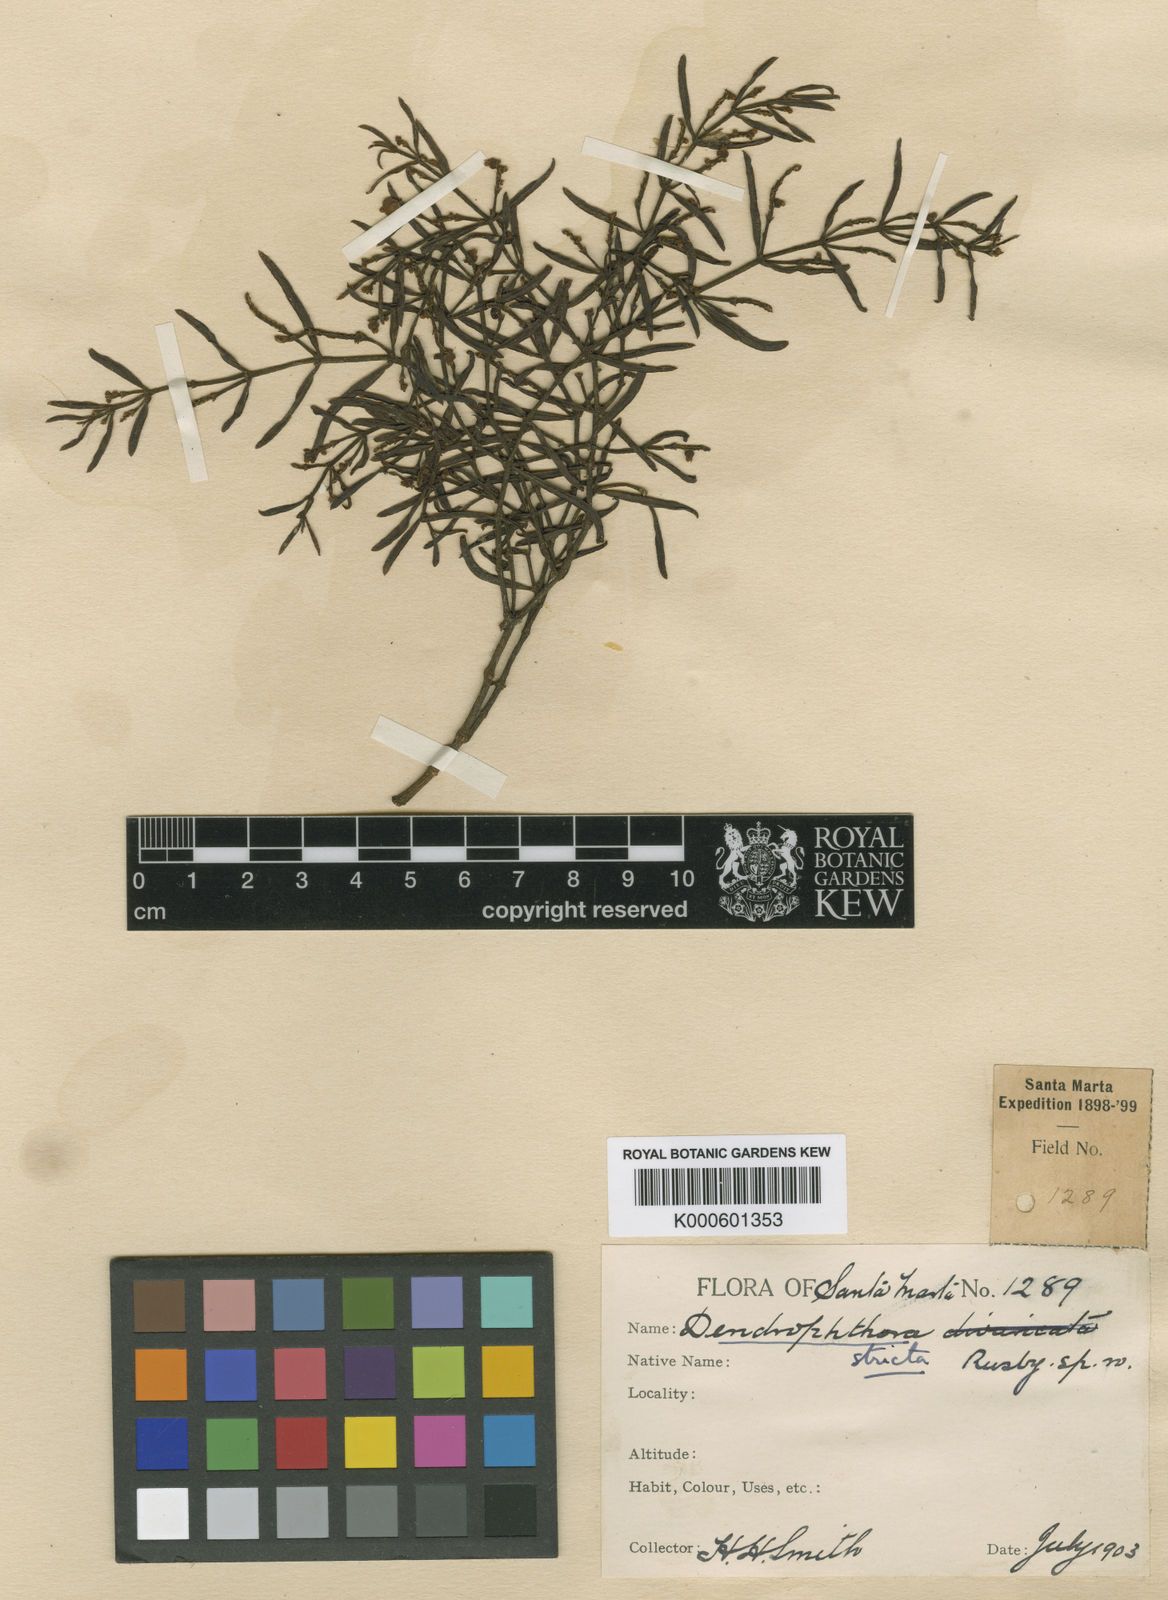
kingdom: Plantae
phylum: Tracheophyta
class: Magnoliopsida
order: Santalales
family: Viscaceae
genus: Dendrophthora
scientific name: Dendrophthora stricta
